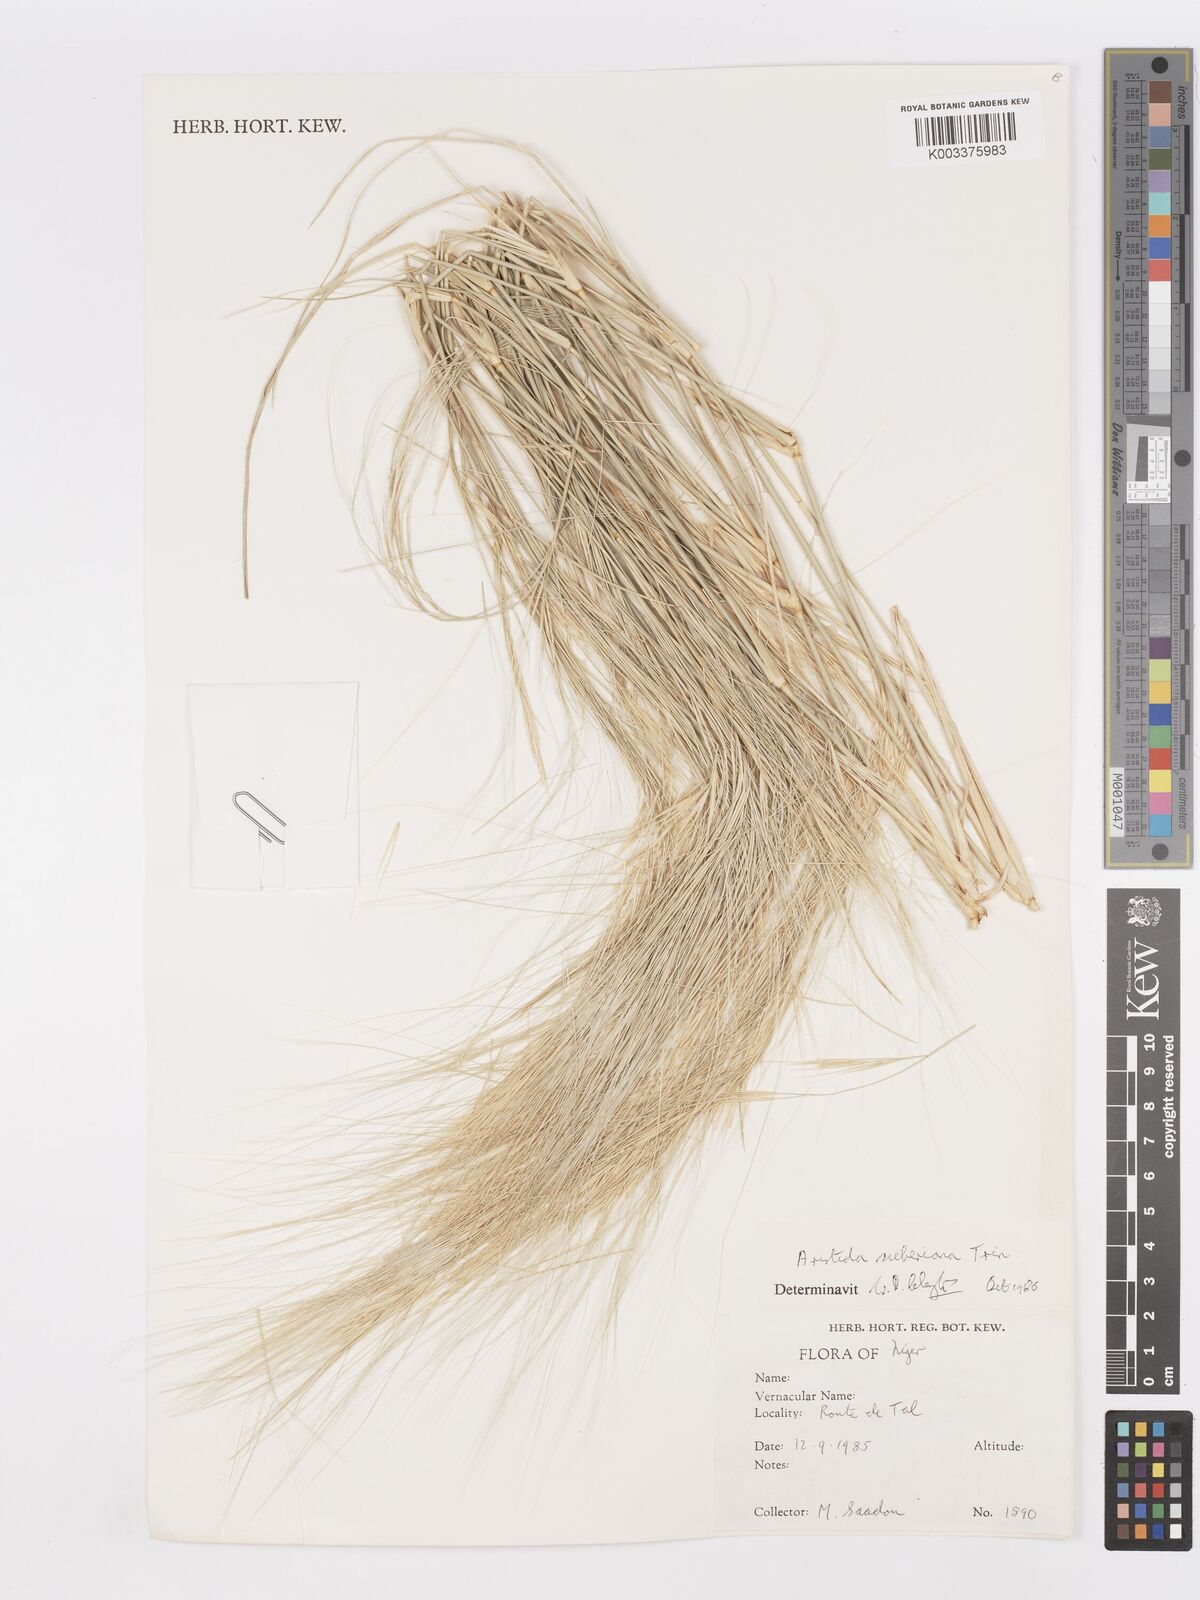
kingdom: Plantae
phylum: Tracheophyta
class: Liliopsida
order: Poales
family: Poaceae
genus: Aristida
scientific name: Aristida sieberiana
